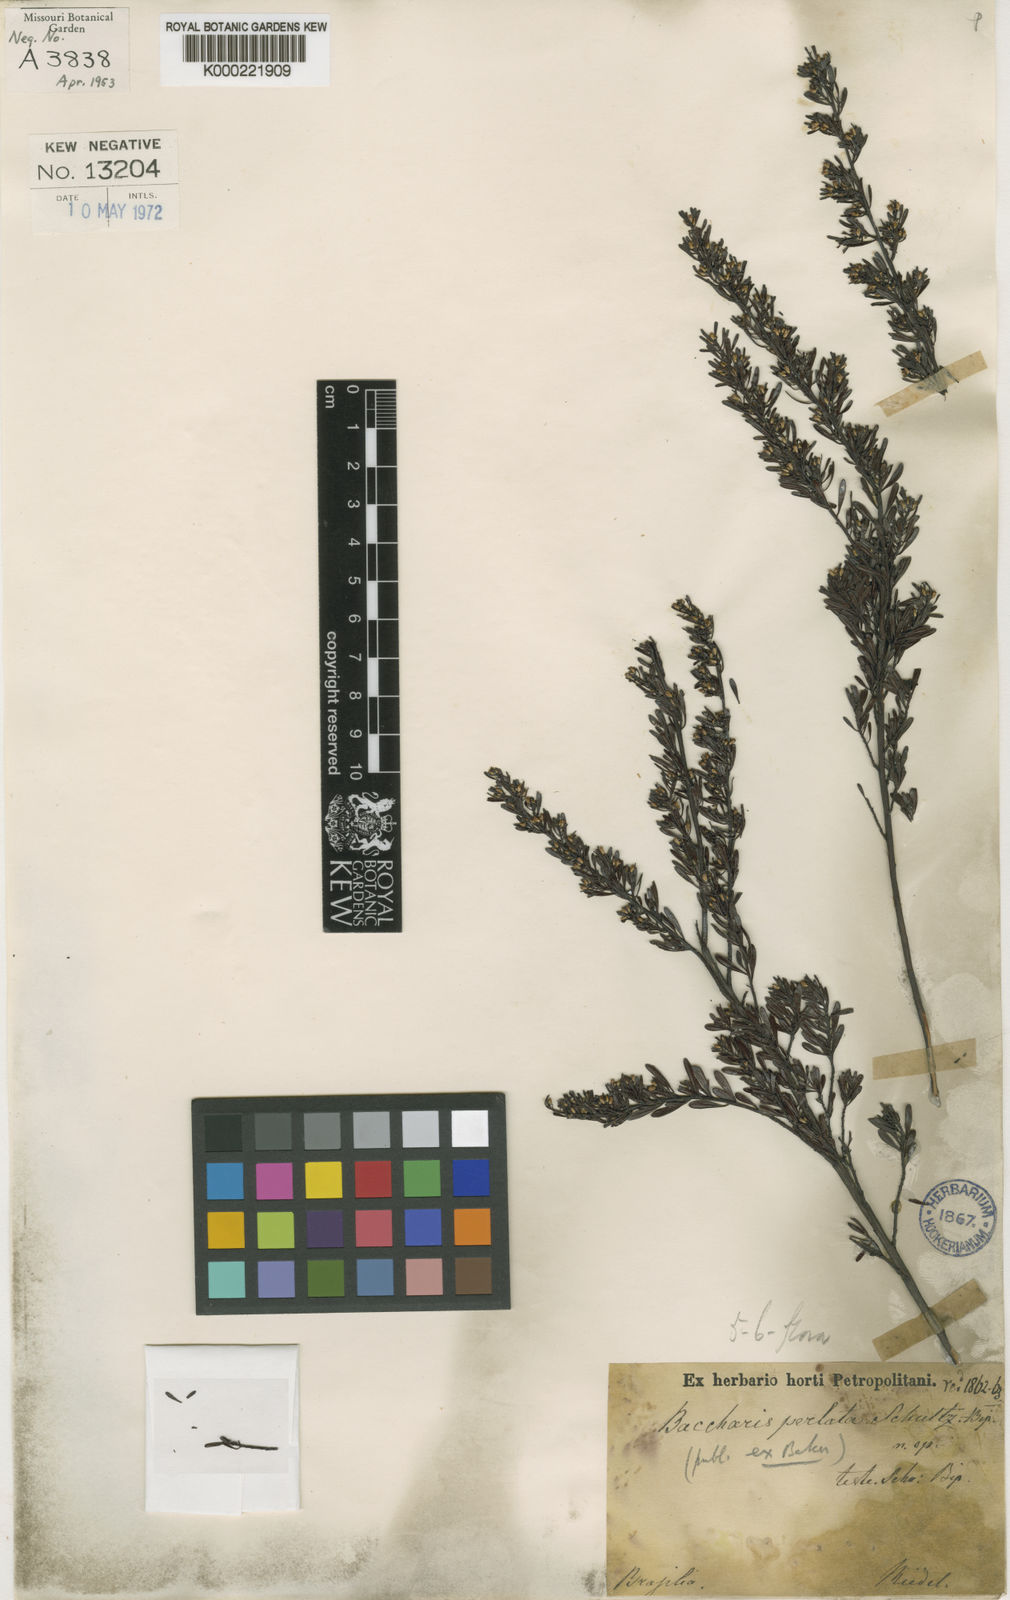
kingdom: Plantae
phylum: Tracheophyta
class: Magnoliopsida
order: Asterales
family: Asteraceae
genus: Baccharis
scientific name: Baccharis
